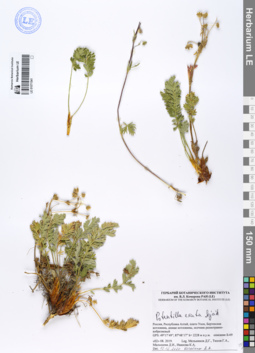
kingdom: Plantae
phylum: Tracheophyta
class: Magnoliopsida
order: Rosales
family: Rosaceae
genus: Potentilla
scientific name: Potentilla exuta
